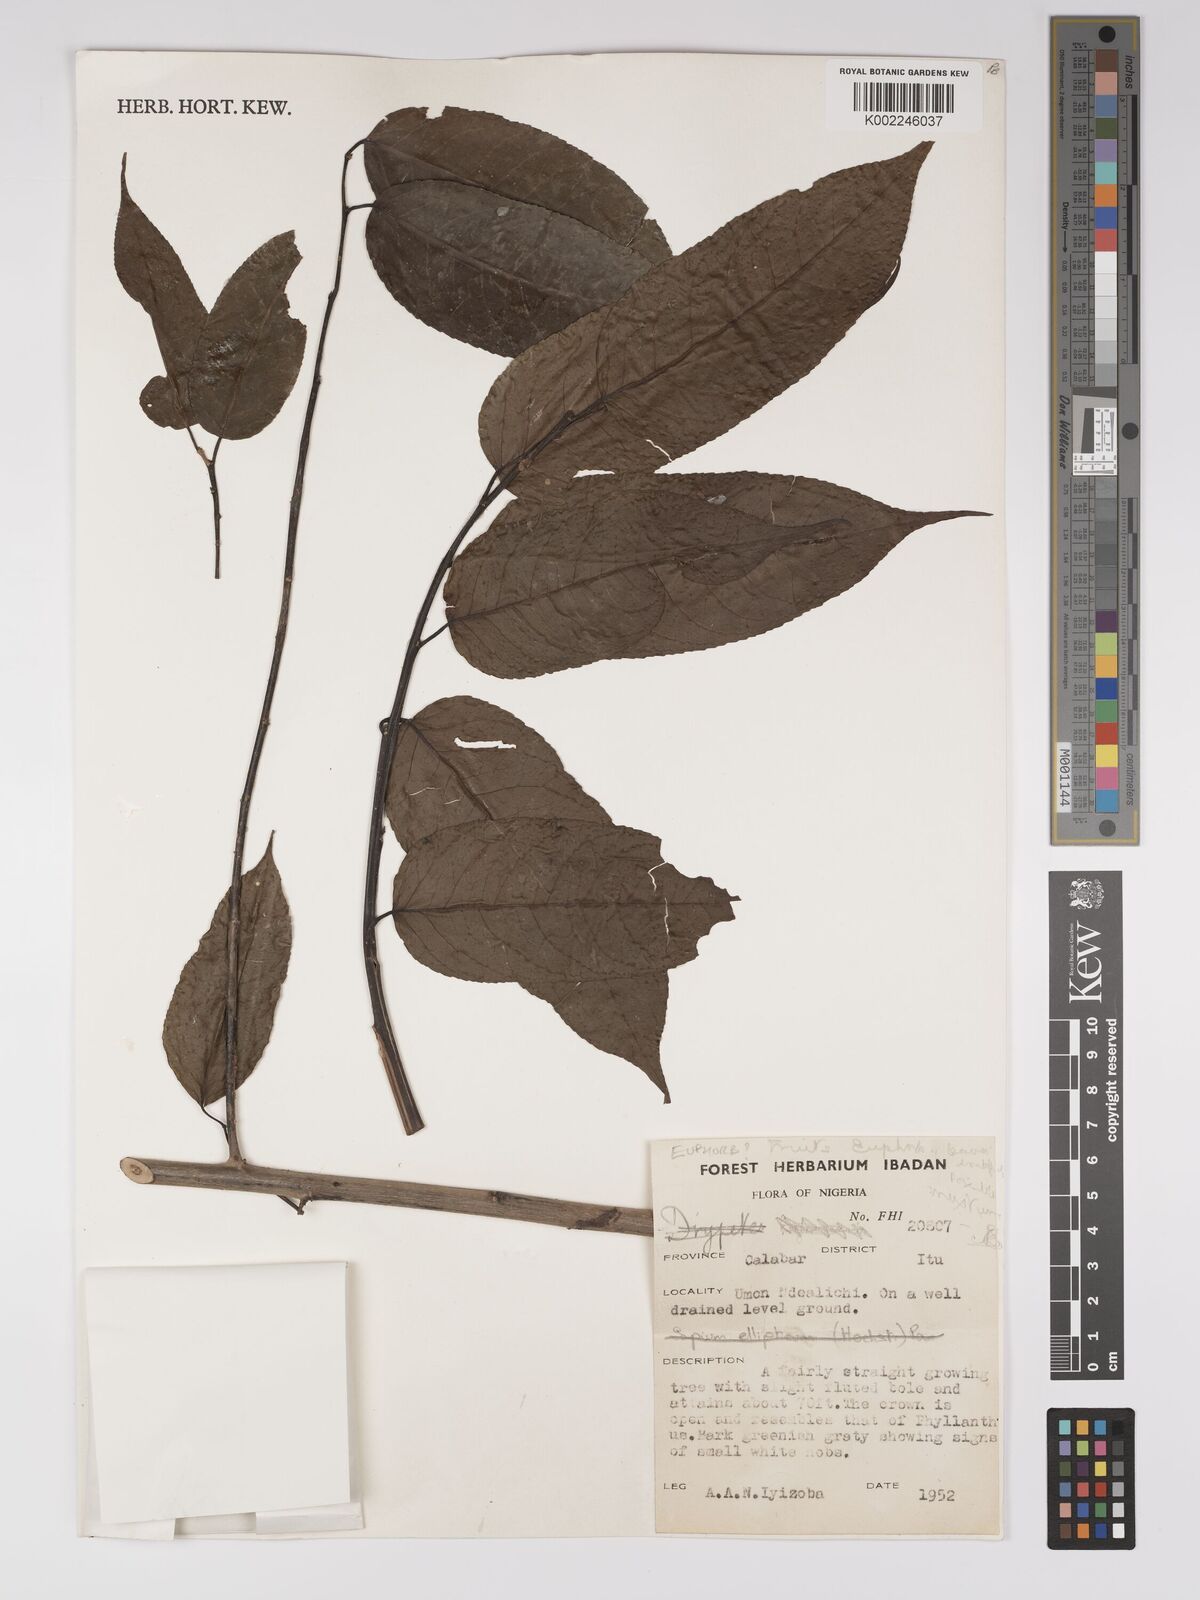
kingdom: Plantae
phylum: Tracheophyta
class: Magnoliopsida
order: Malpighiales
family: Euphorbiaceae
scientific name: Euphorbiaceae
